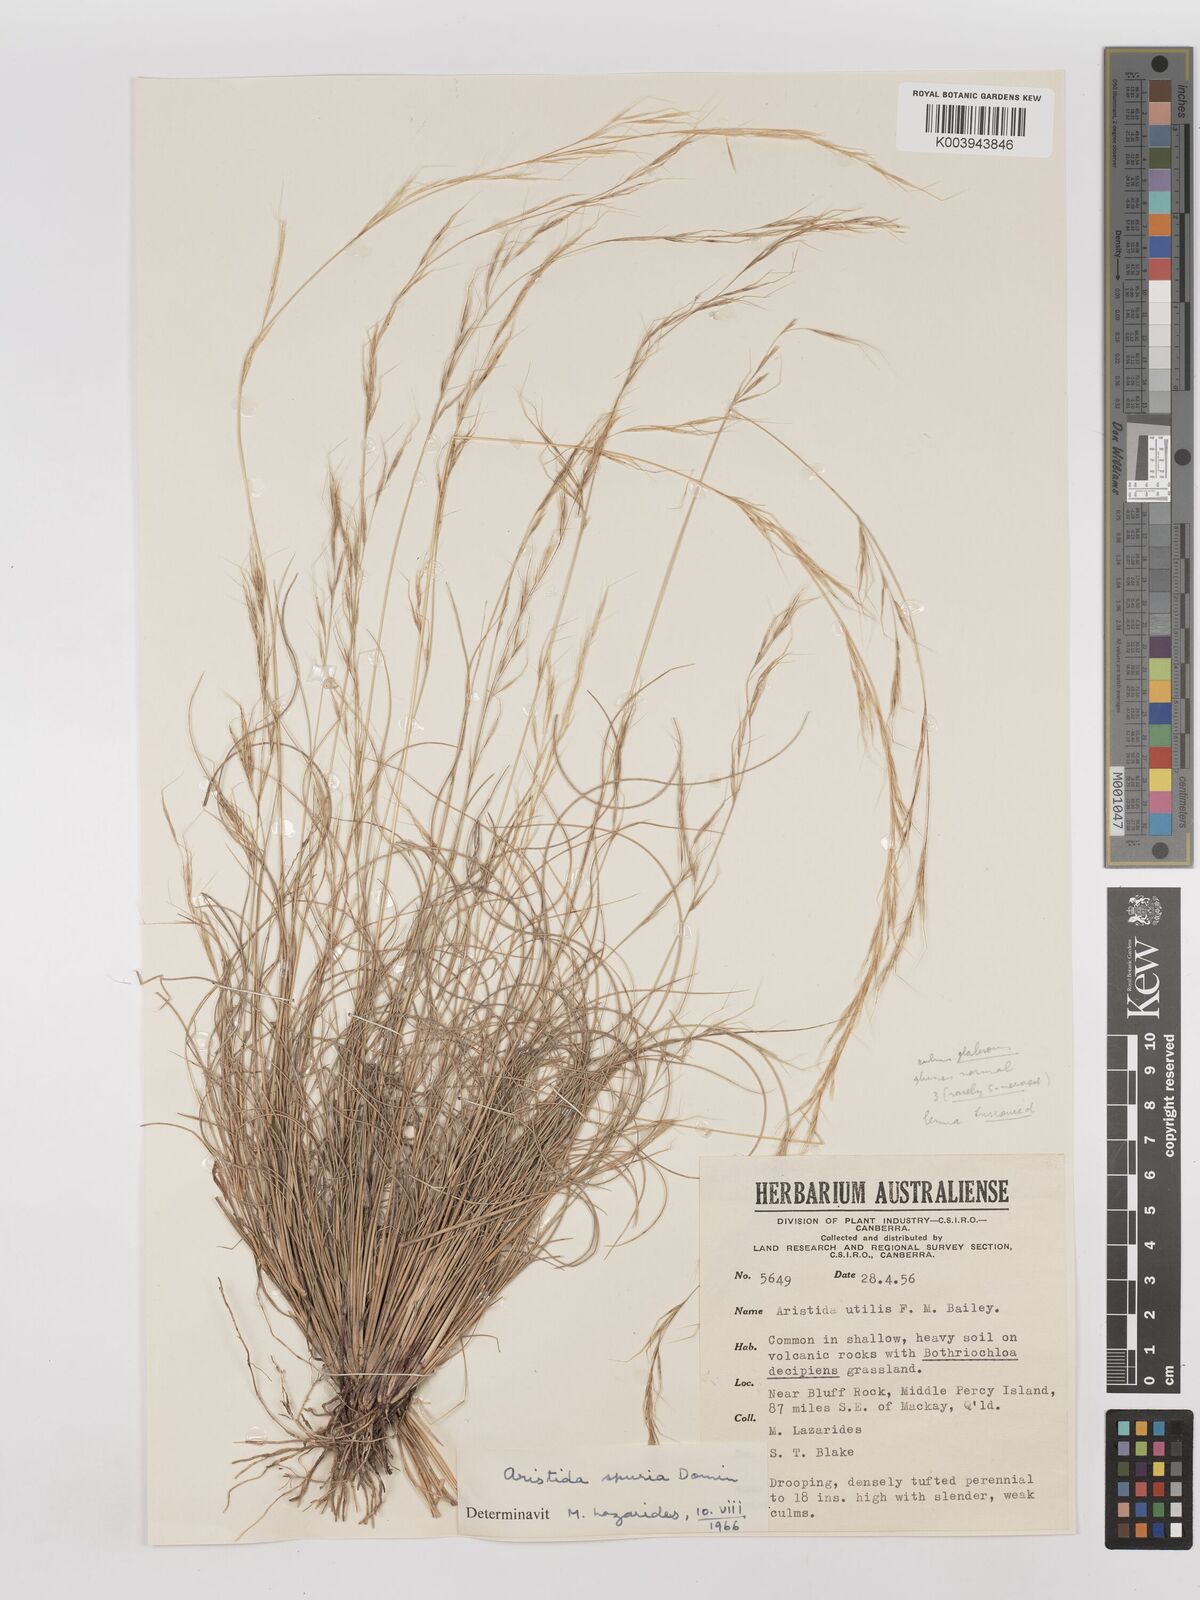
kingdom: Plantae
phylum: Tracheophyta
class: Liliopsida
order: Poales
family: Poaceae
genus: Aristida
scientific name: Aristida spuria
